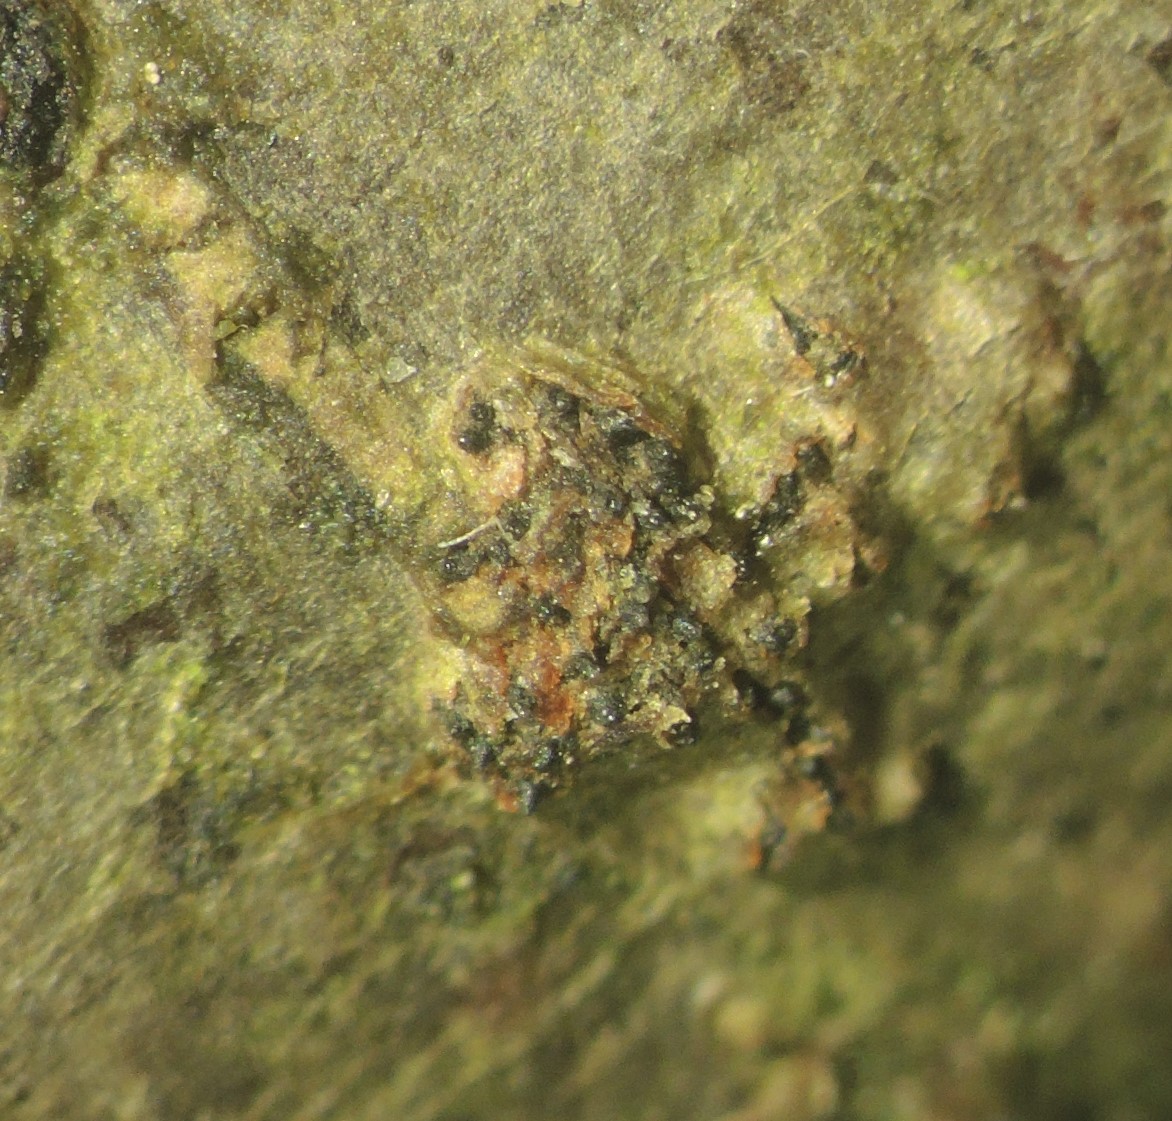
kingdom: Fungi
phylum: Ascomycota
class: Sordariomycetes
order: Diaporthales
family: Gnomoniaceae
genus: Cryptodiaporthe
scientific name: Cryptodiaporthe aubertii
